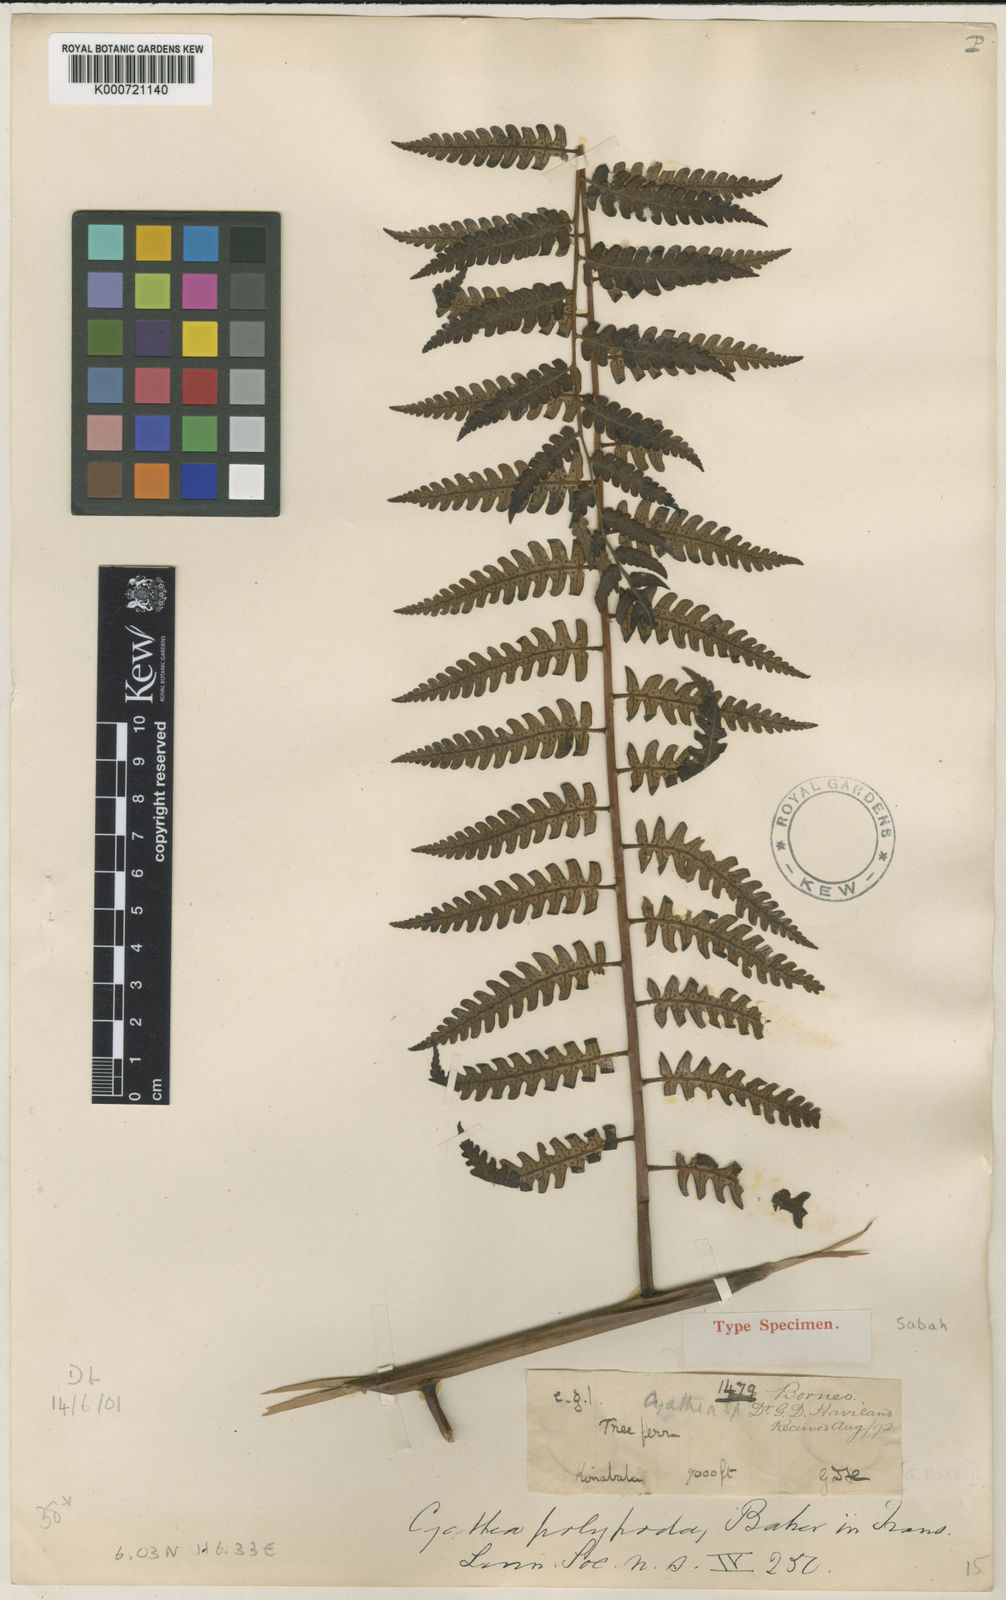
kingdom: Plantae
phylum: Tracheophyta
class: Polypodiopsida
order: Cyatheales
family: Cyatheaceae
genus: Sphaeropteris
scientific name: Sphaeropteris polypoda
